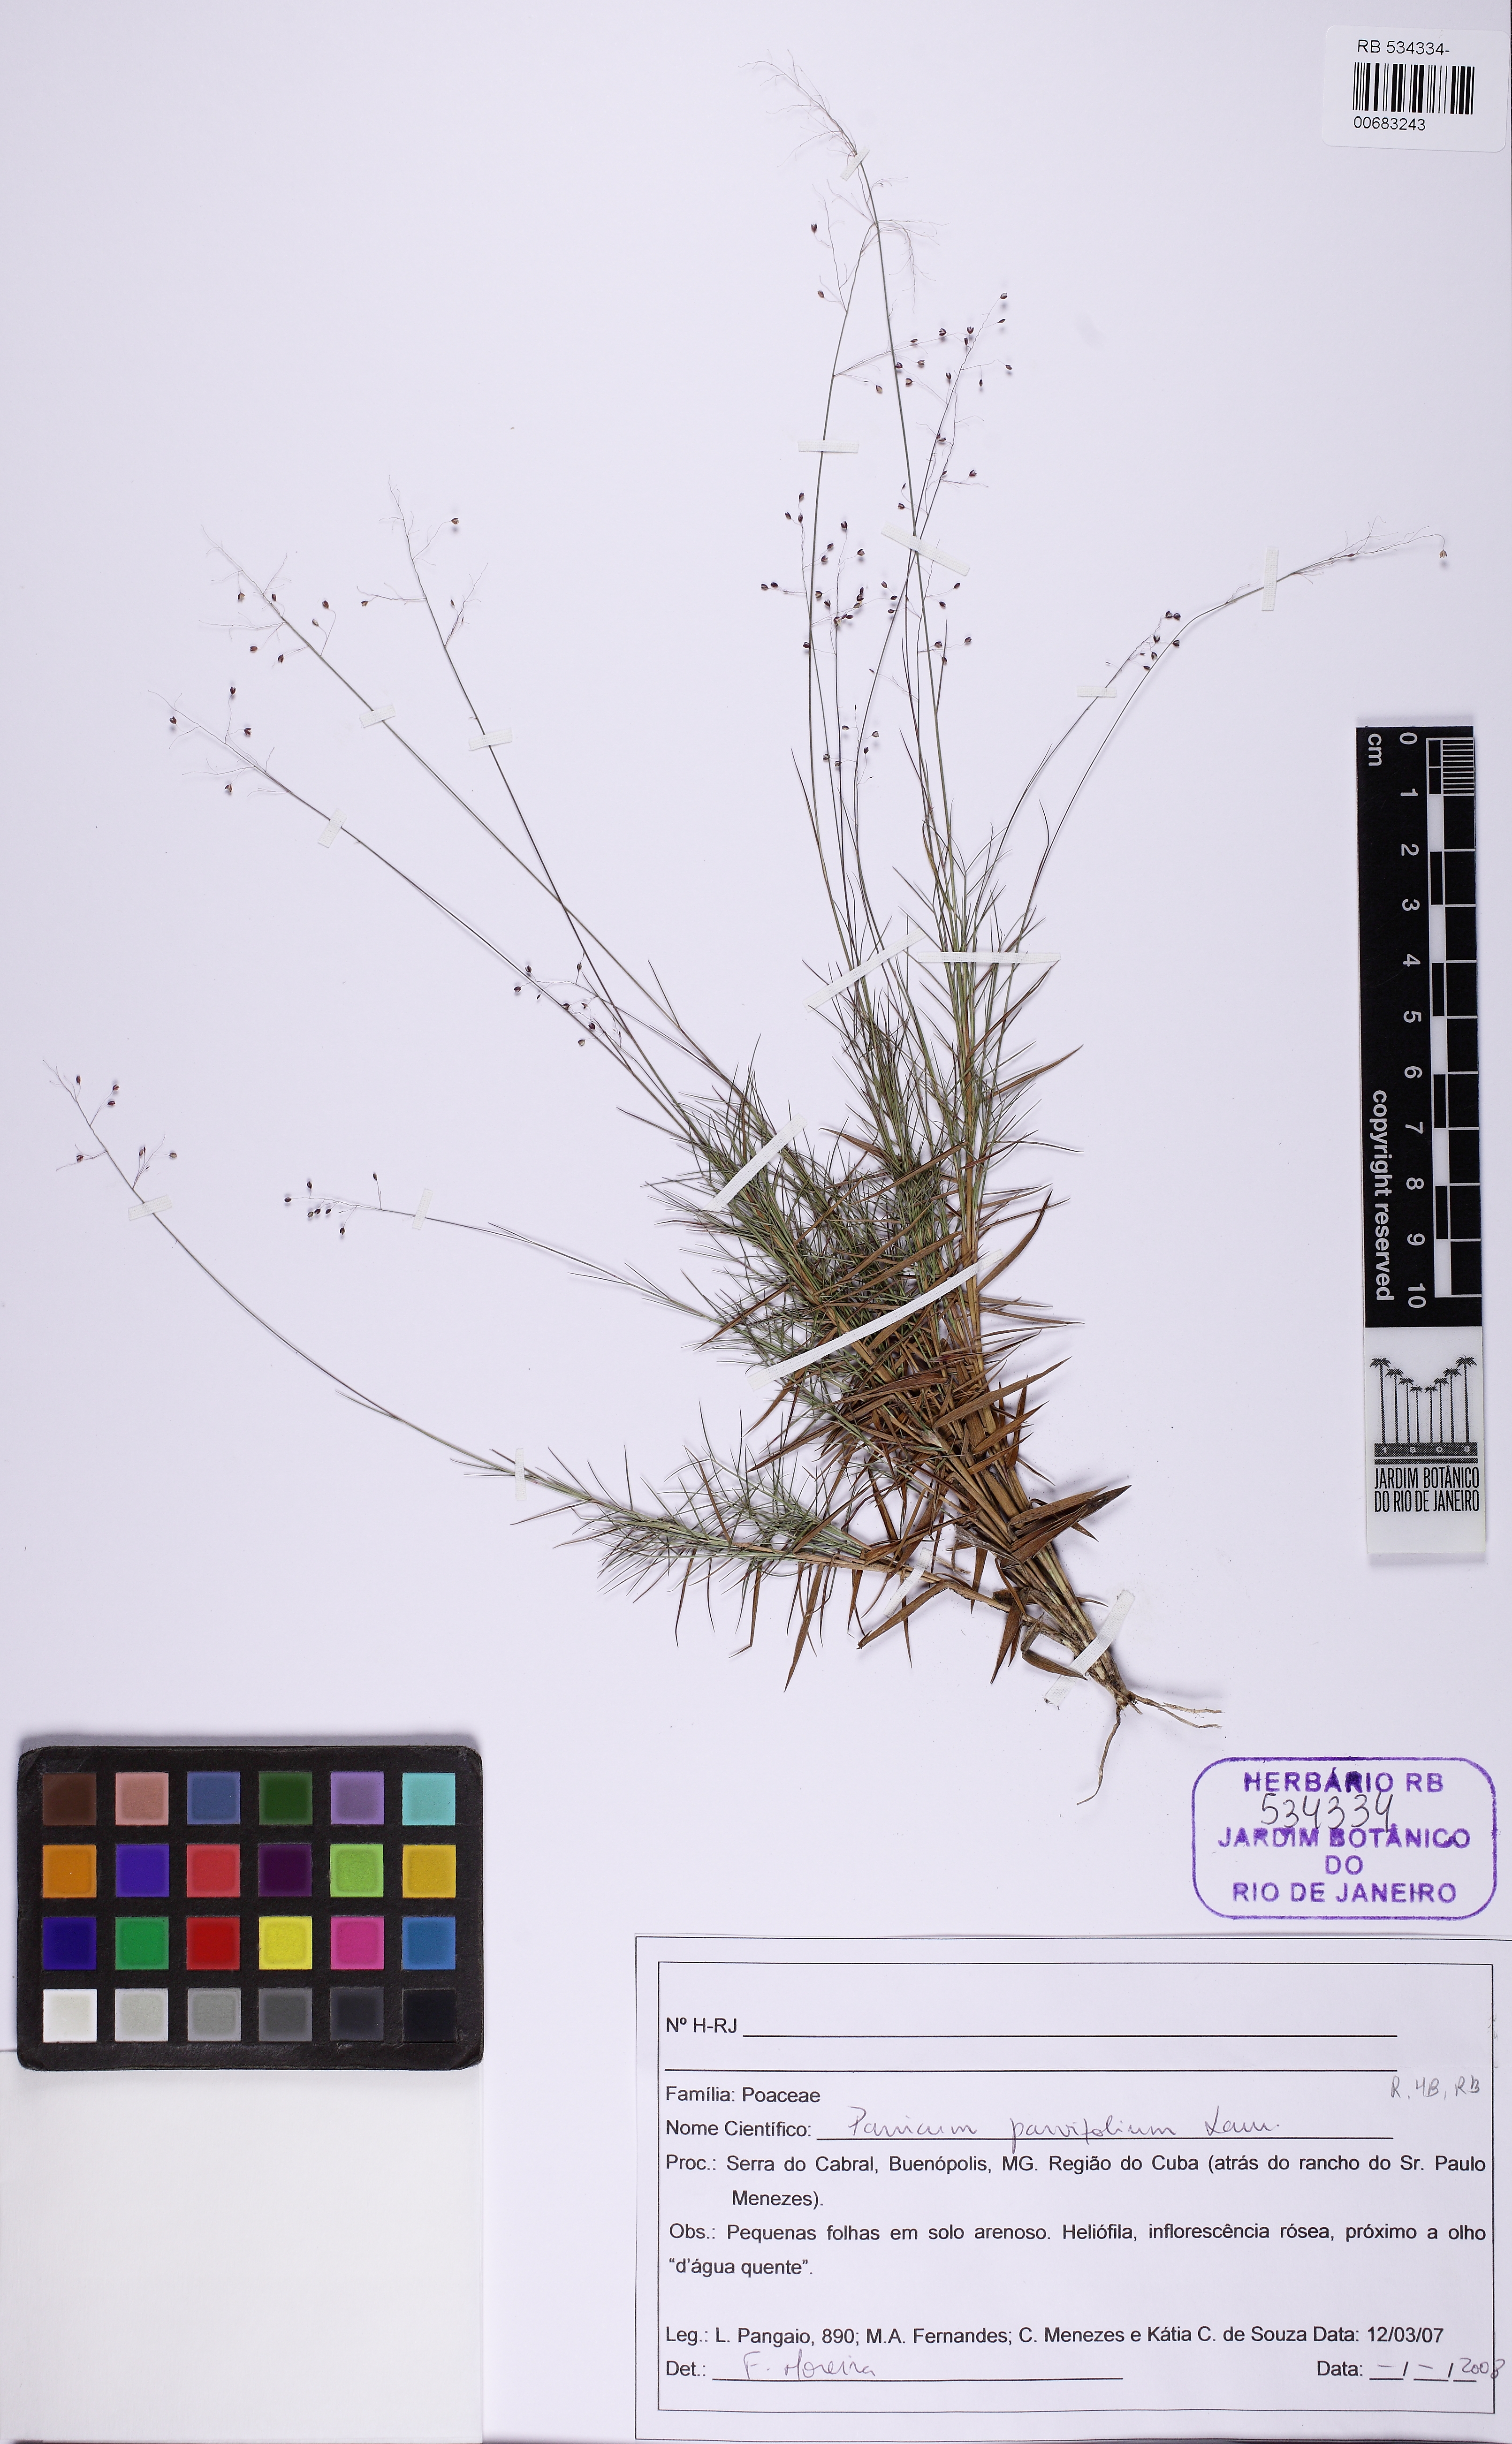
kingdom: Plantae
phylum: Tracheophyta
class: Liliopsida
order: Poales
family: Poaceae
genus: Trichanthecium
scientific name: Trichanthecium pseudisachne
